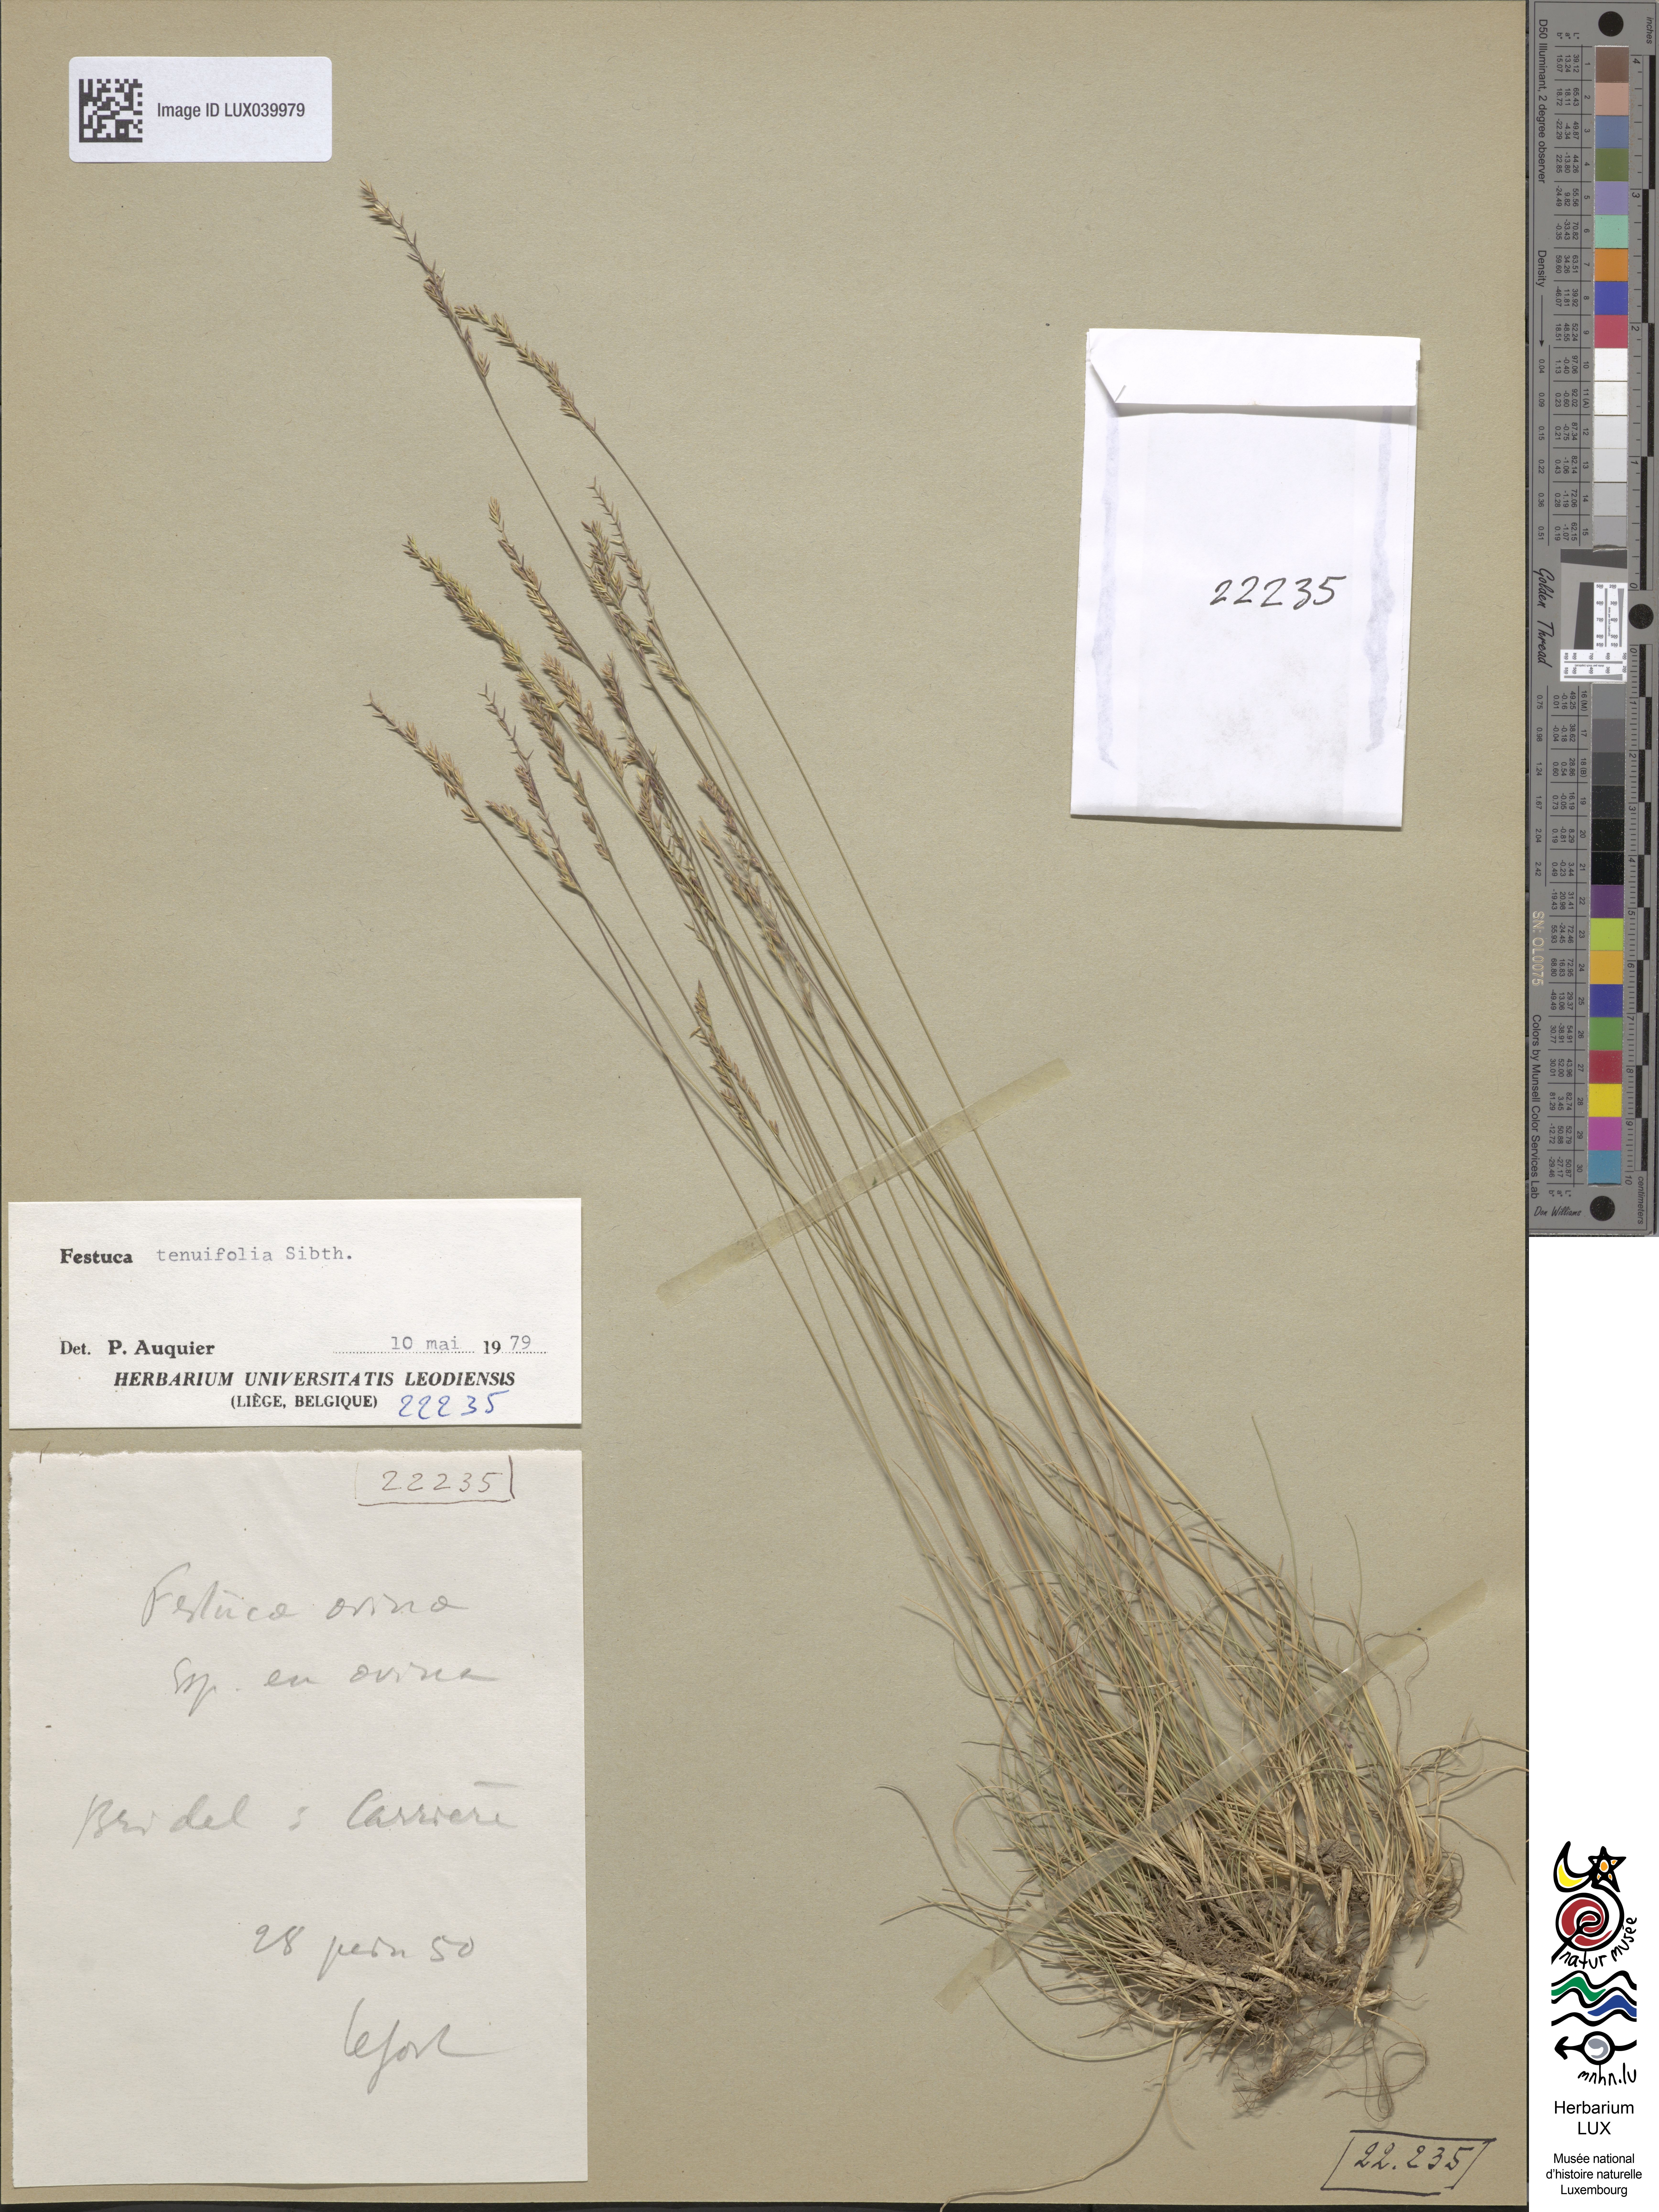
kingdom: Plantae
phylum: Tracheophyta
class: Liliopsida
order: Poales
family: Poaceae
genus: Festuca
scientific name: Festuca ovina
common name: Sheep fescue
